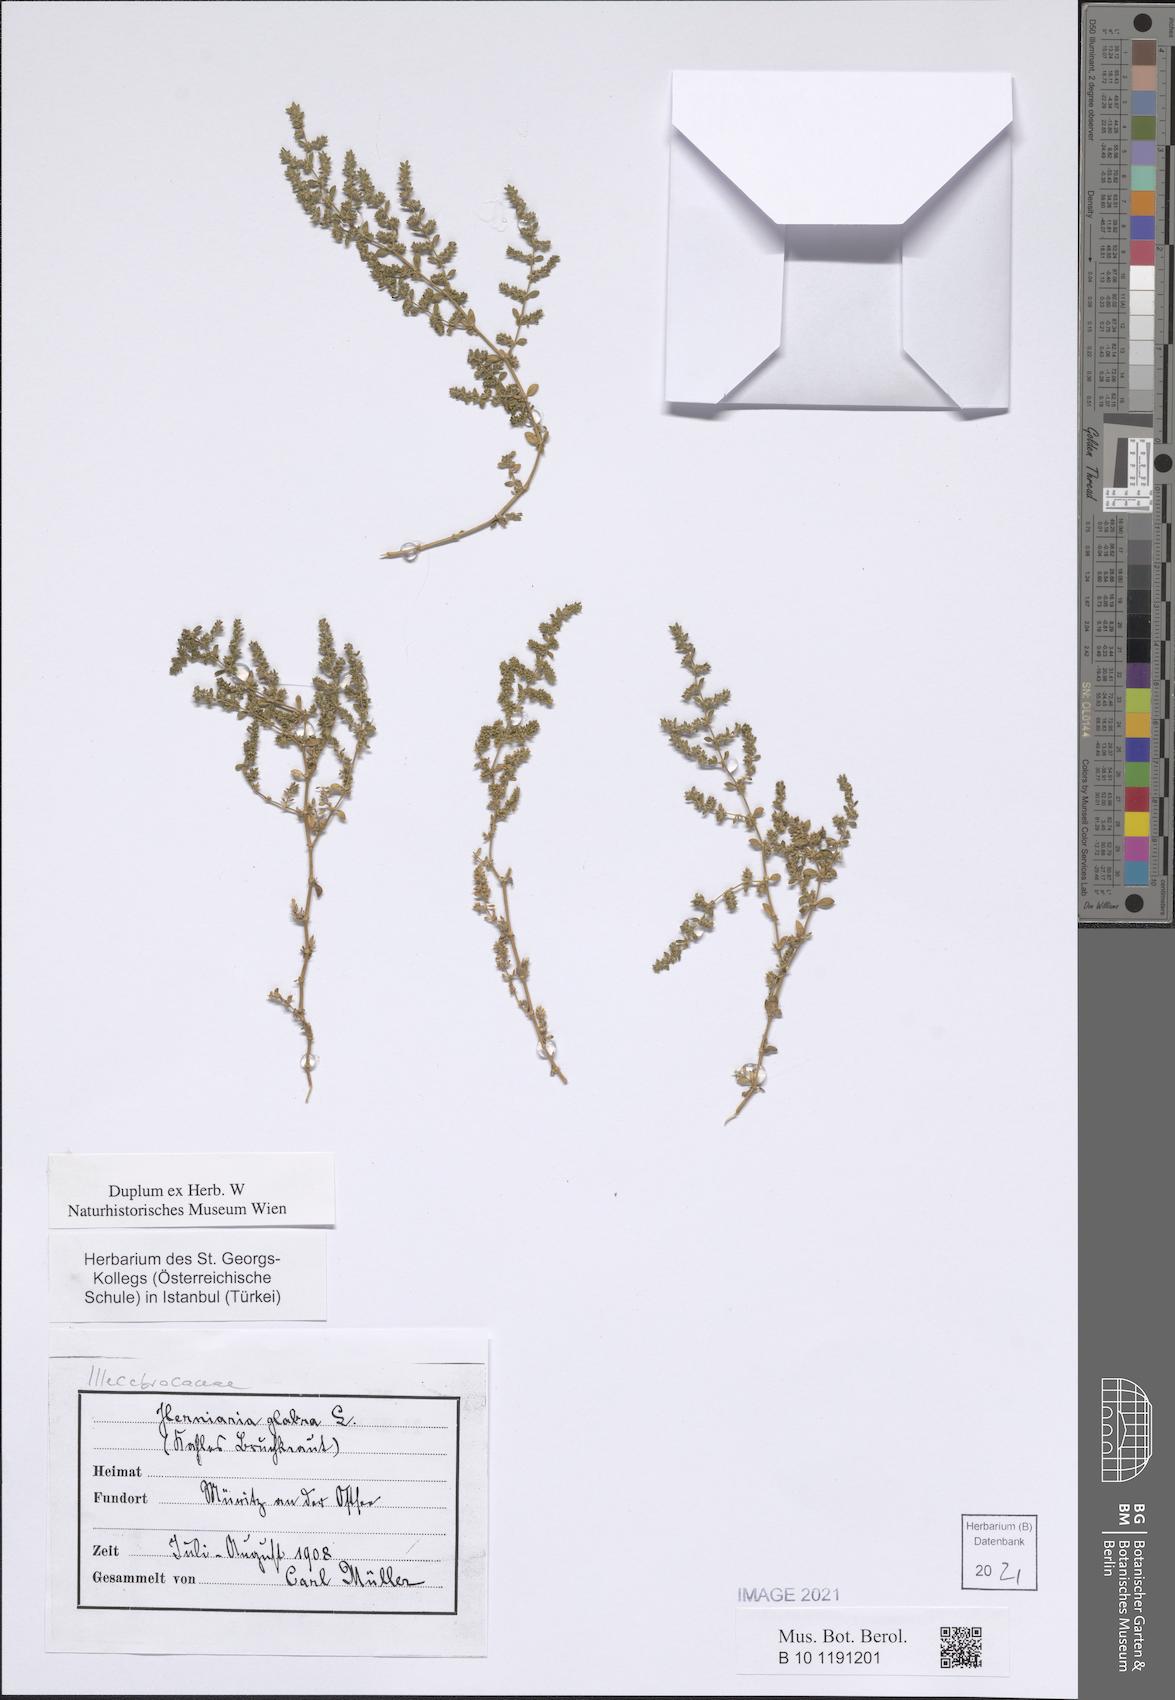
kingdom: Plantae
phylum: Tracheophyta
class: Magnoliopsida
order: Caryophyllales
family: Caryophyllaceae
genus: Herniaria
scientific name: Herniaria glabra
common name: Smooth rupturewort
